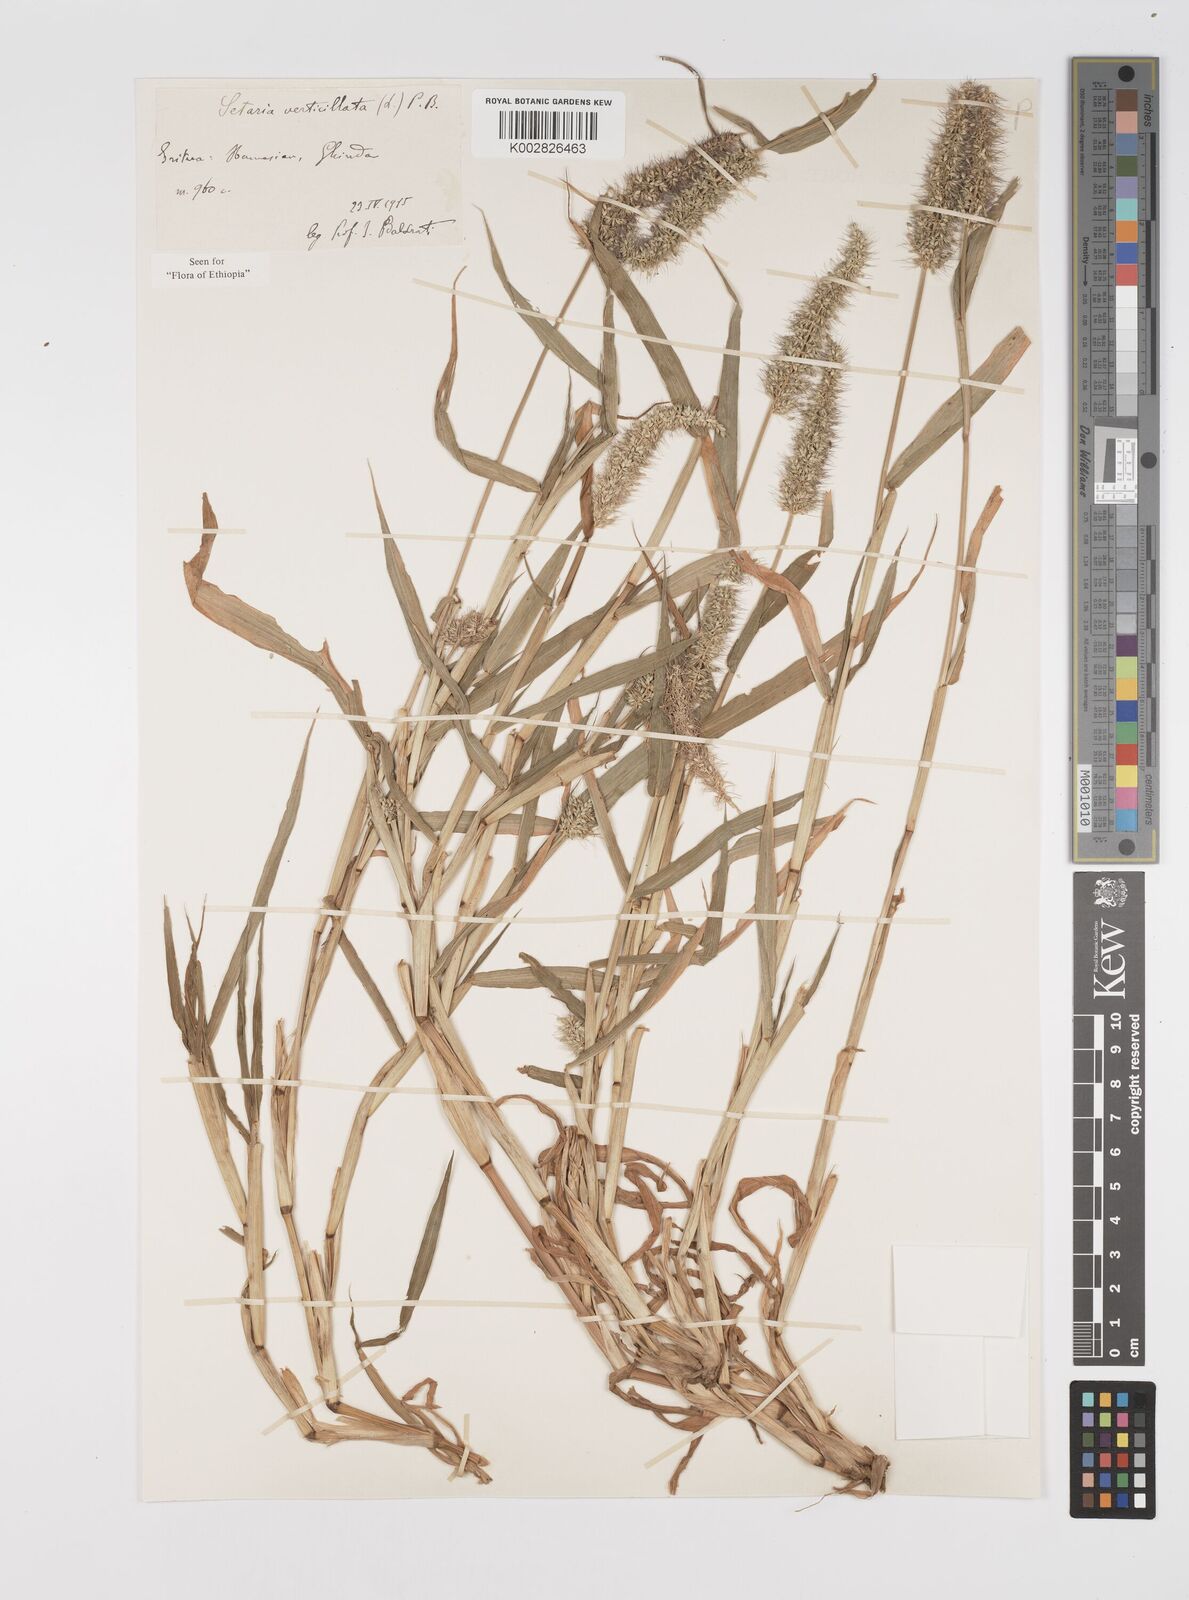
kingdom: Plantae
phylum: Tracheophyta
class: Liliopsida
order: Poales
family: Poaceae
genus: Setaria
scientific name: Setaria verticillata
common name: Hooked bristlegrass
